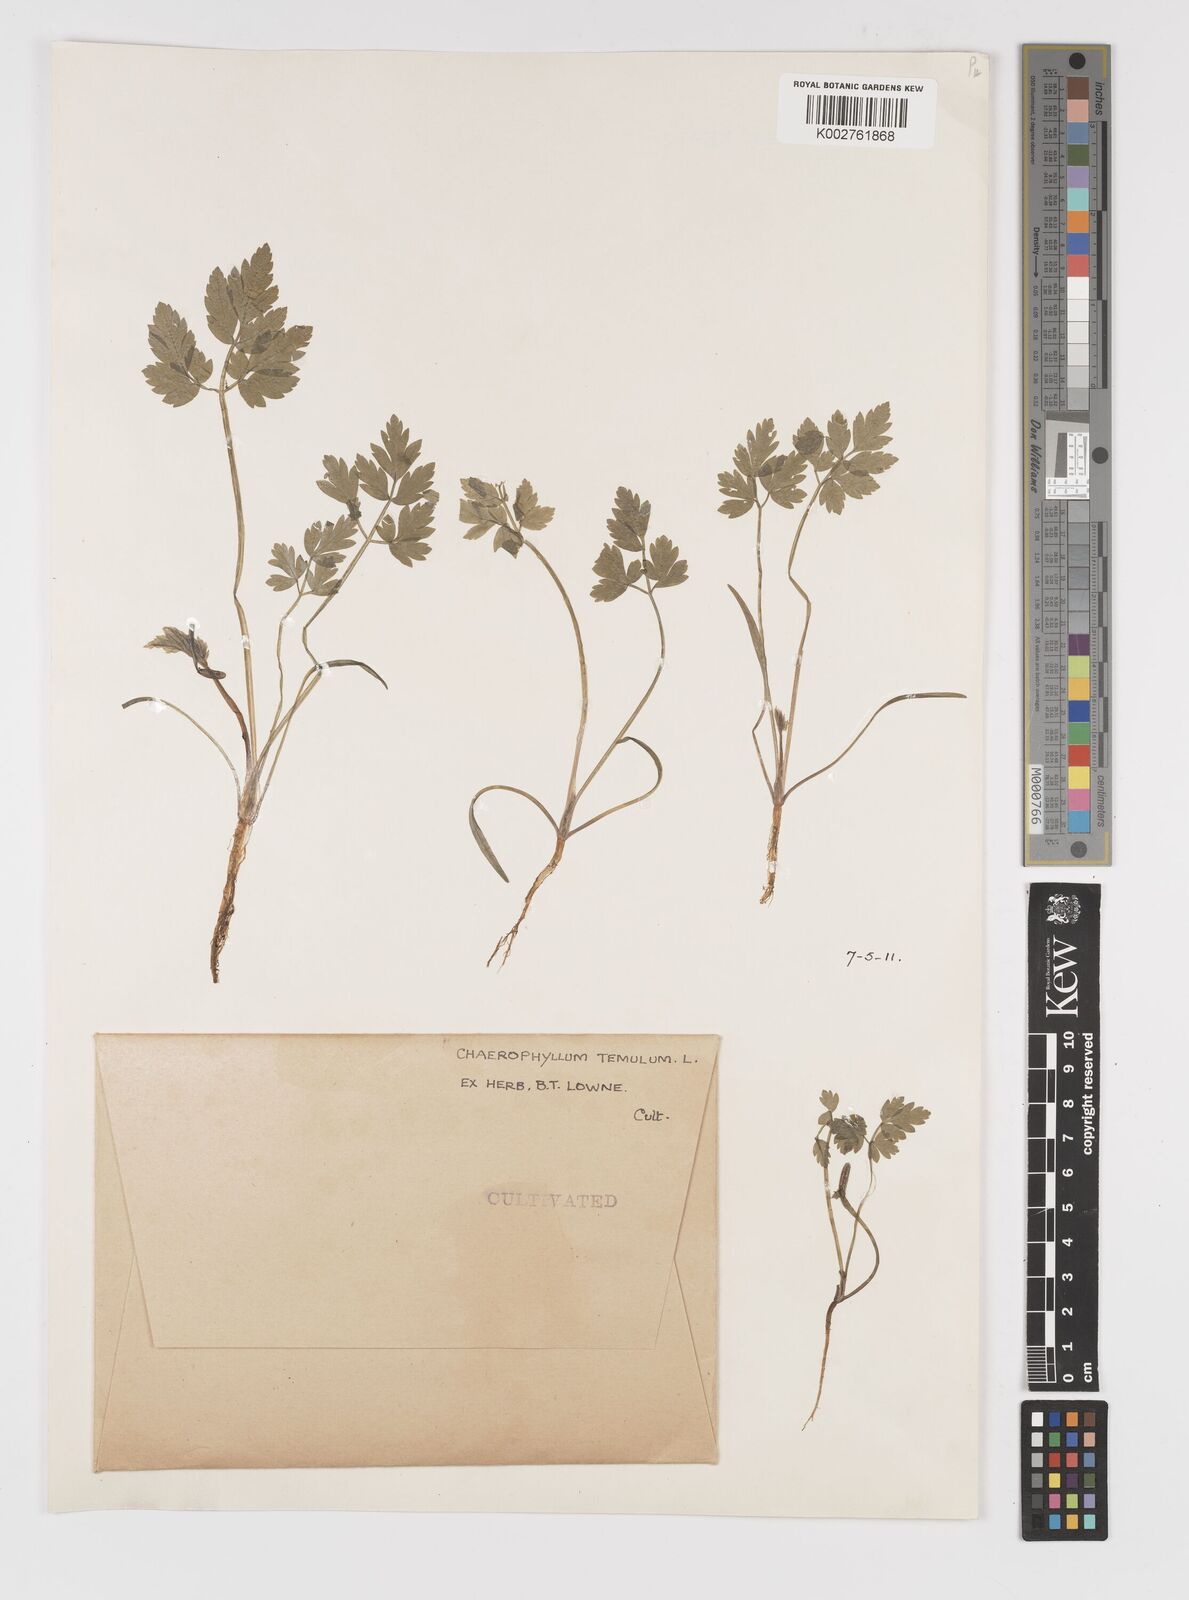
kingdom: Plantae
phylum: Tracheophyta
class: Magnoliopsida
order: Apiales
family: Apiaceae
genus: Chaerophyllum
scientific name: Chaerophyllum temulum
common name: Rough chervil
